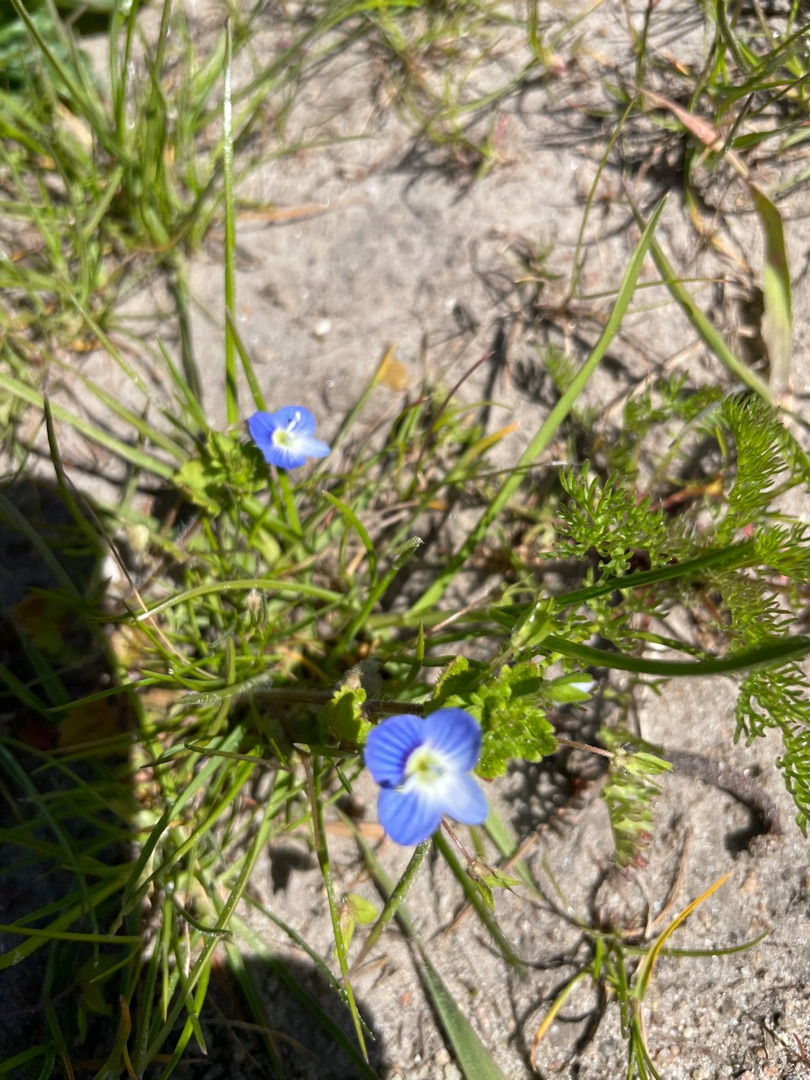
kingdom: Plantae
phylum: Tracheophyta
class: Magnoliopsida
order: Lamiales
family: Plantaginaceae
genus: Veronica
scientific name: Veronica persica
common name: Storkronet ærenpris
